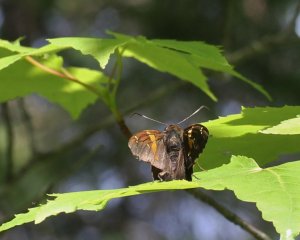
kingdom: Animalia
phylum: Arthropoda
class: Insecta
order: Lepidoptera
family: Hesperiidae
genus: Epargyreus
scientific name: Epargyreus clarus
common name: Silver-spotted Skipper
